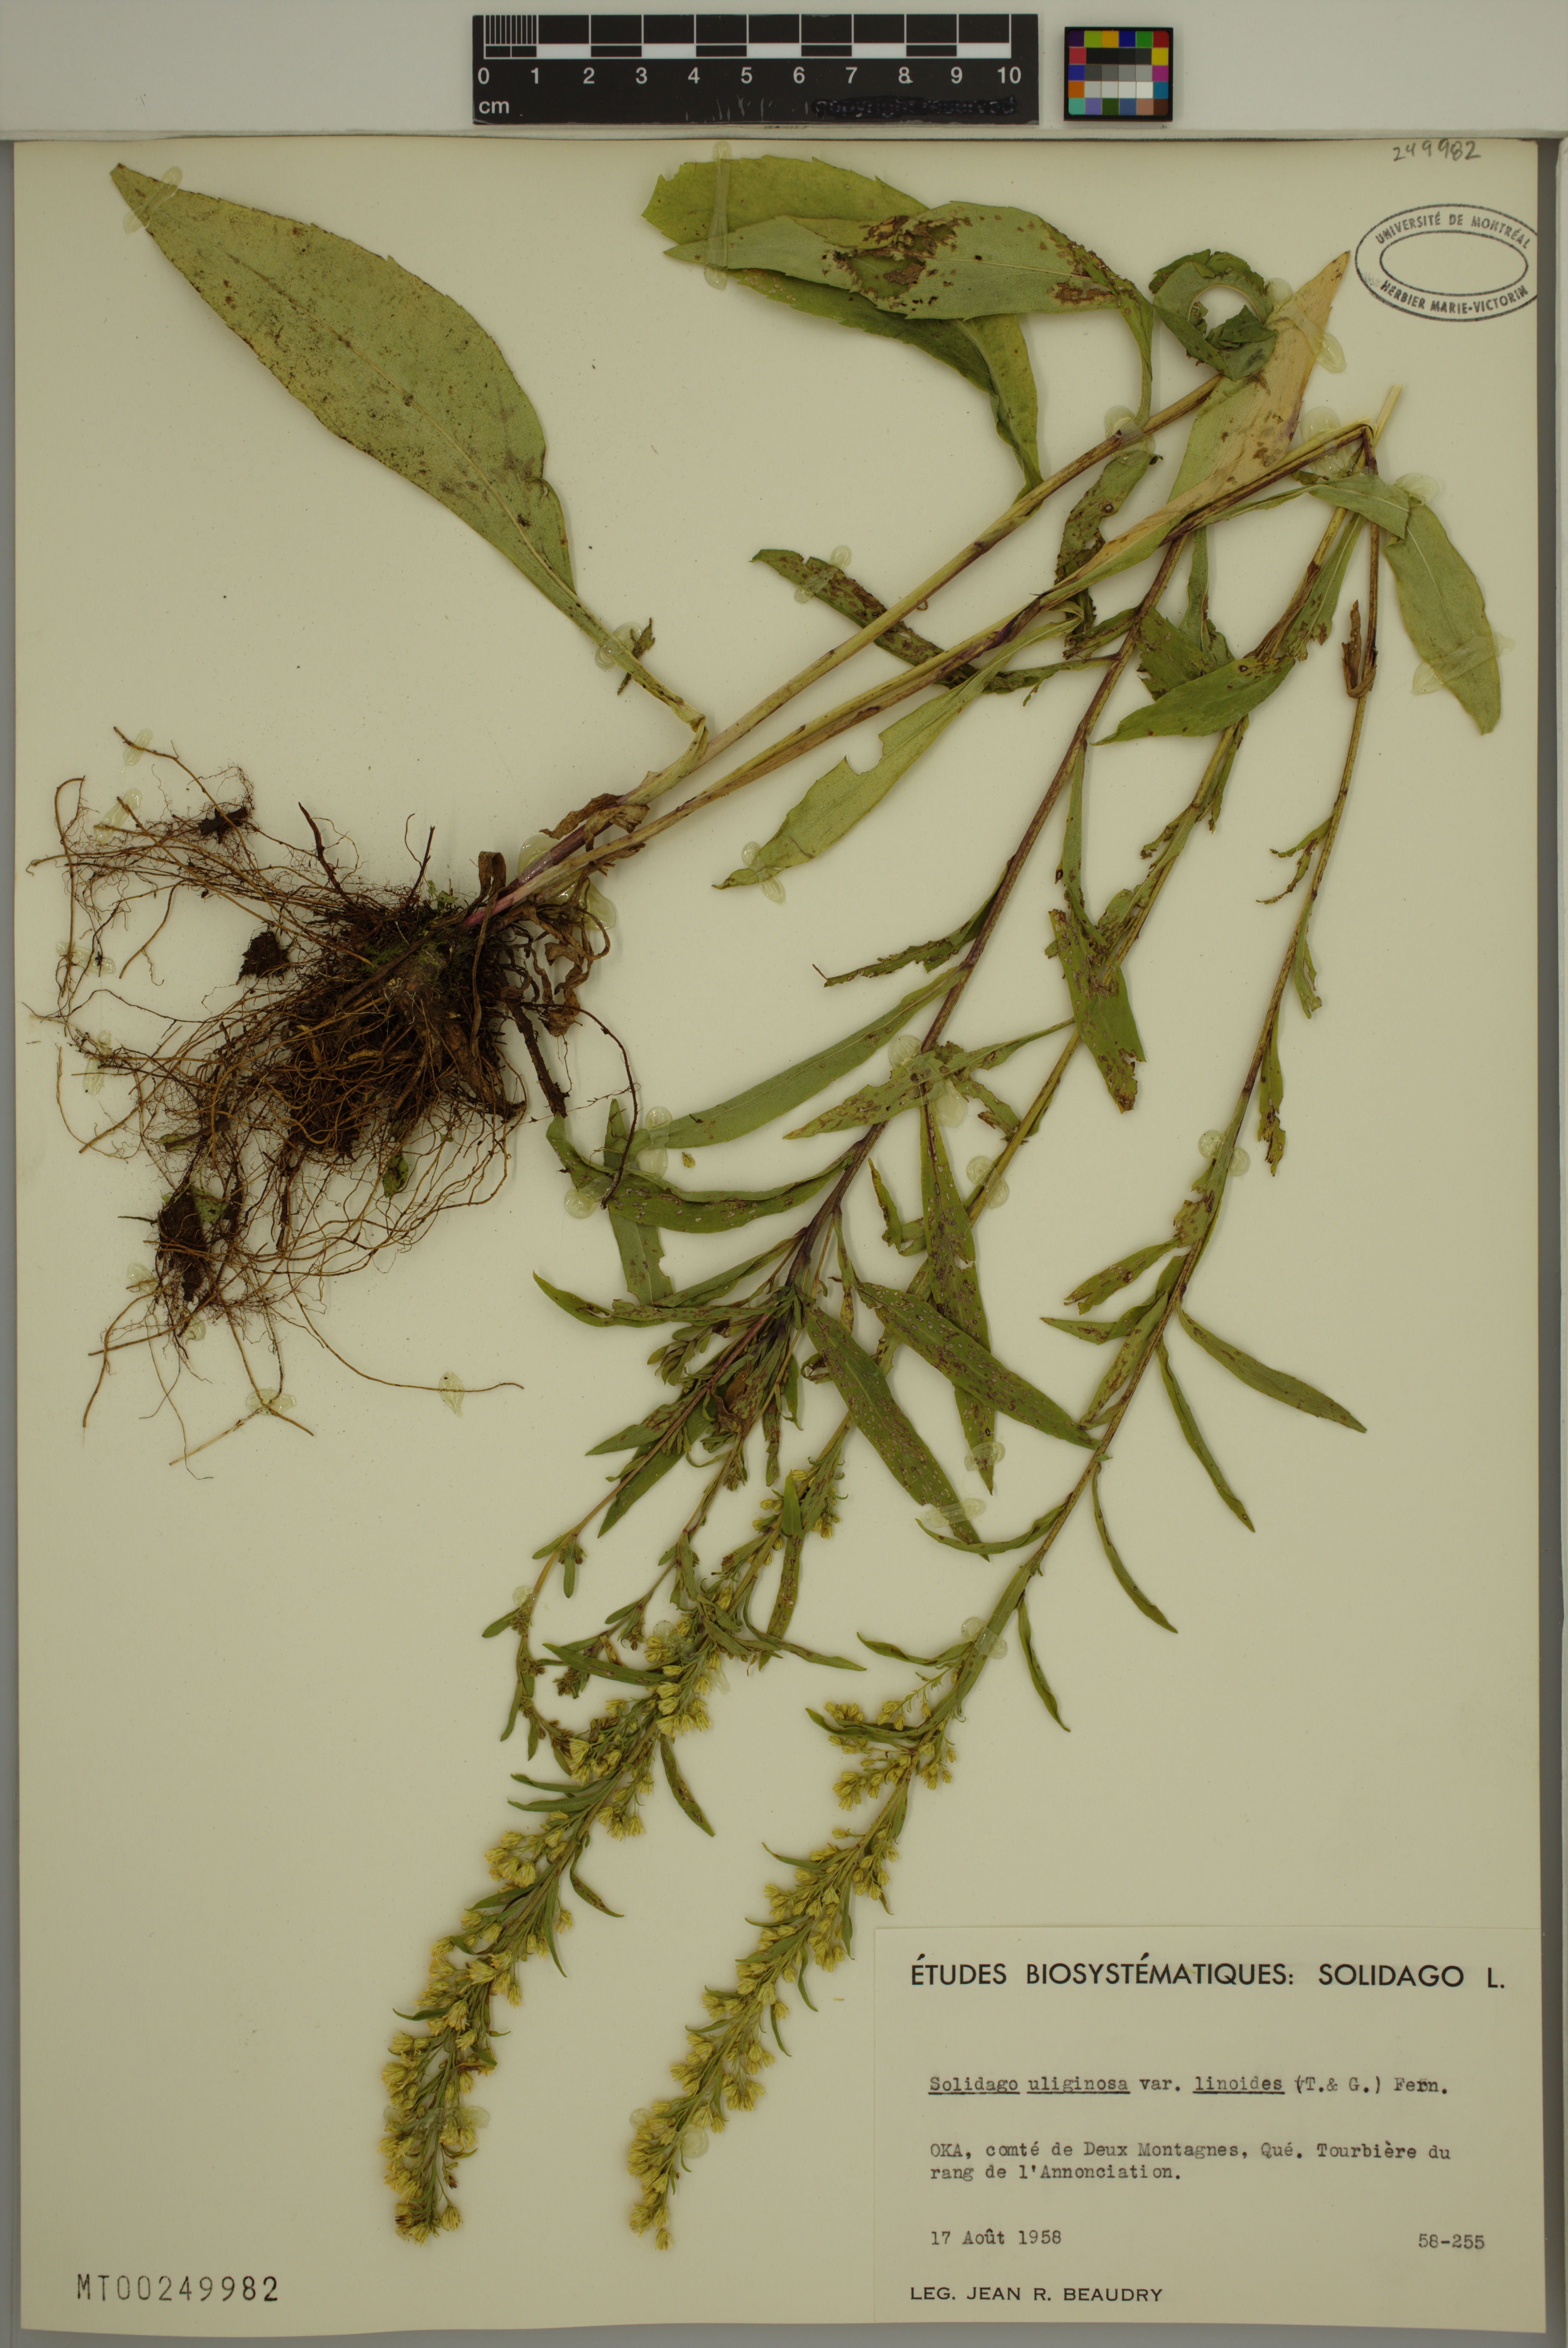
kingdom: Plantae
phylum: Tracheophyta
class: Magnoliopsida
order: Asterales
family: Asteraceae
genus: Solidago
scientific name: Solidago uliginosa
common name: Bog goldenrod
